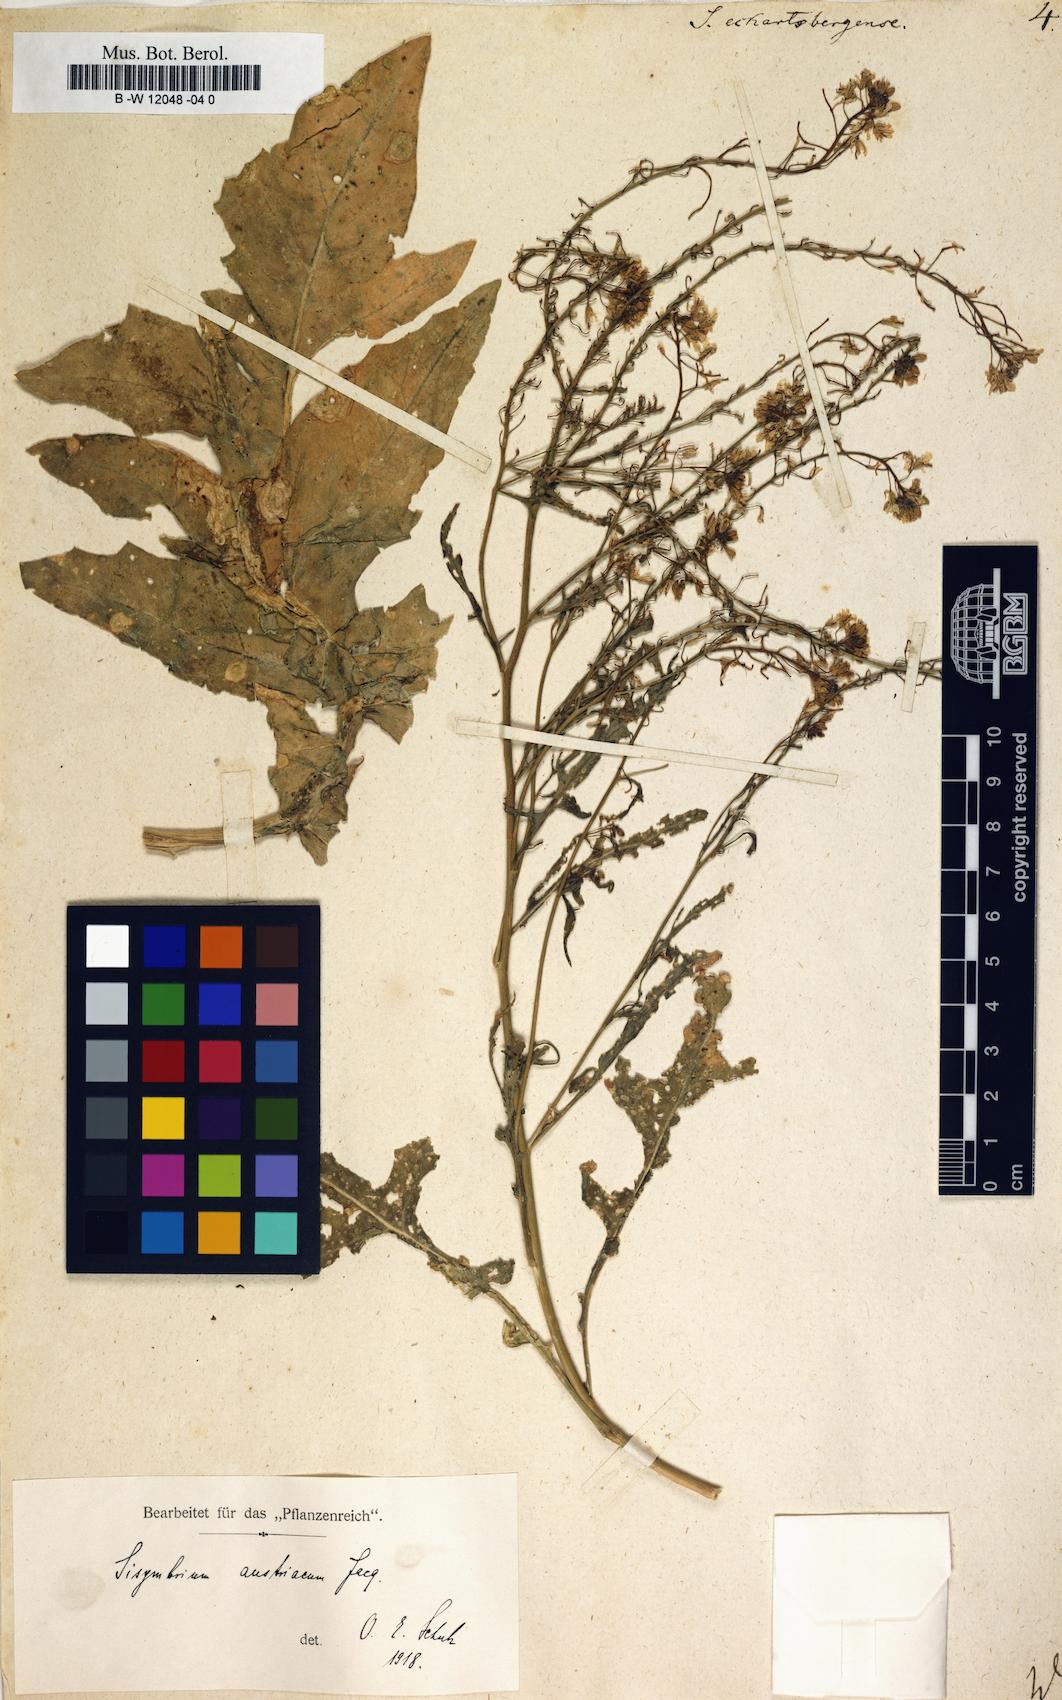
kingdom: Plantae
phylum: Tracheophyta
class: Magnoliopsida
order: Brassicales
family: Brassicaceae
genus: Sisymbrium
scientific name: Sisymbrium austriacum
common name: Jeweled rocket
